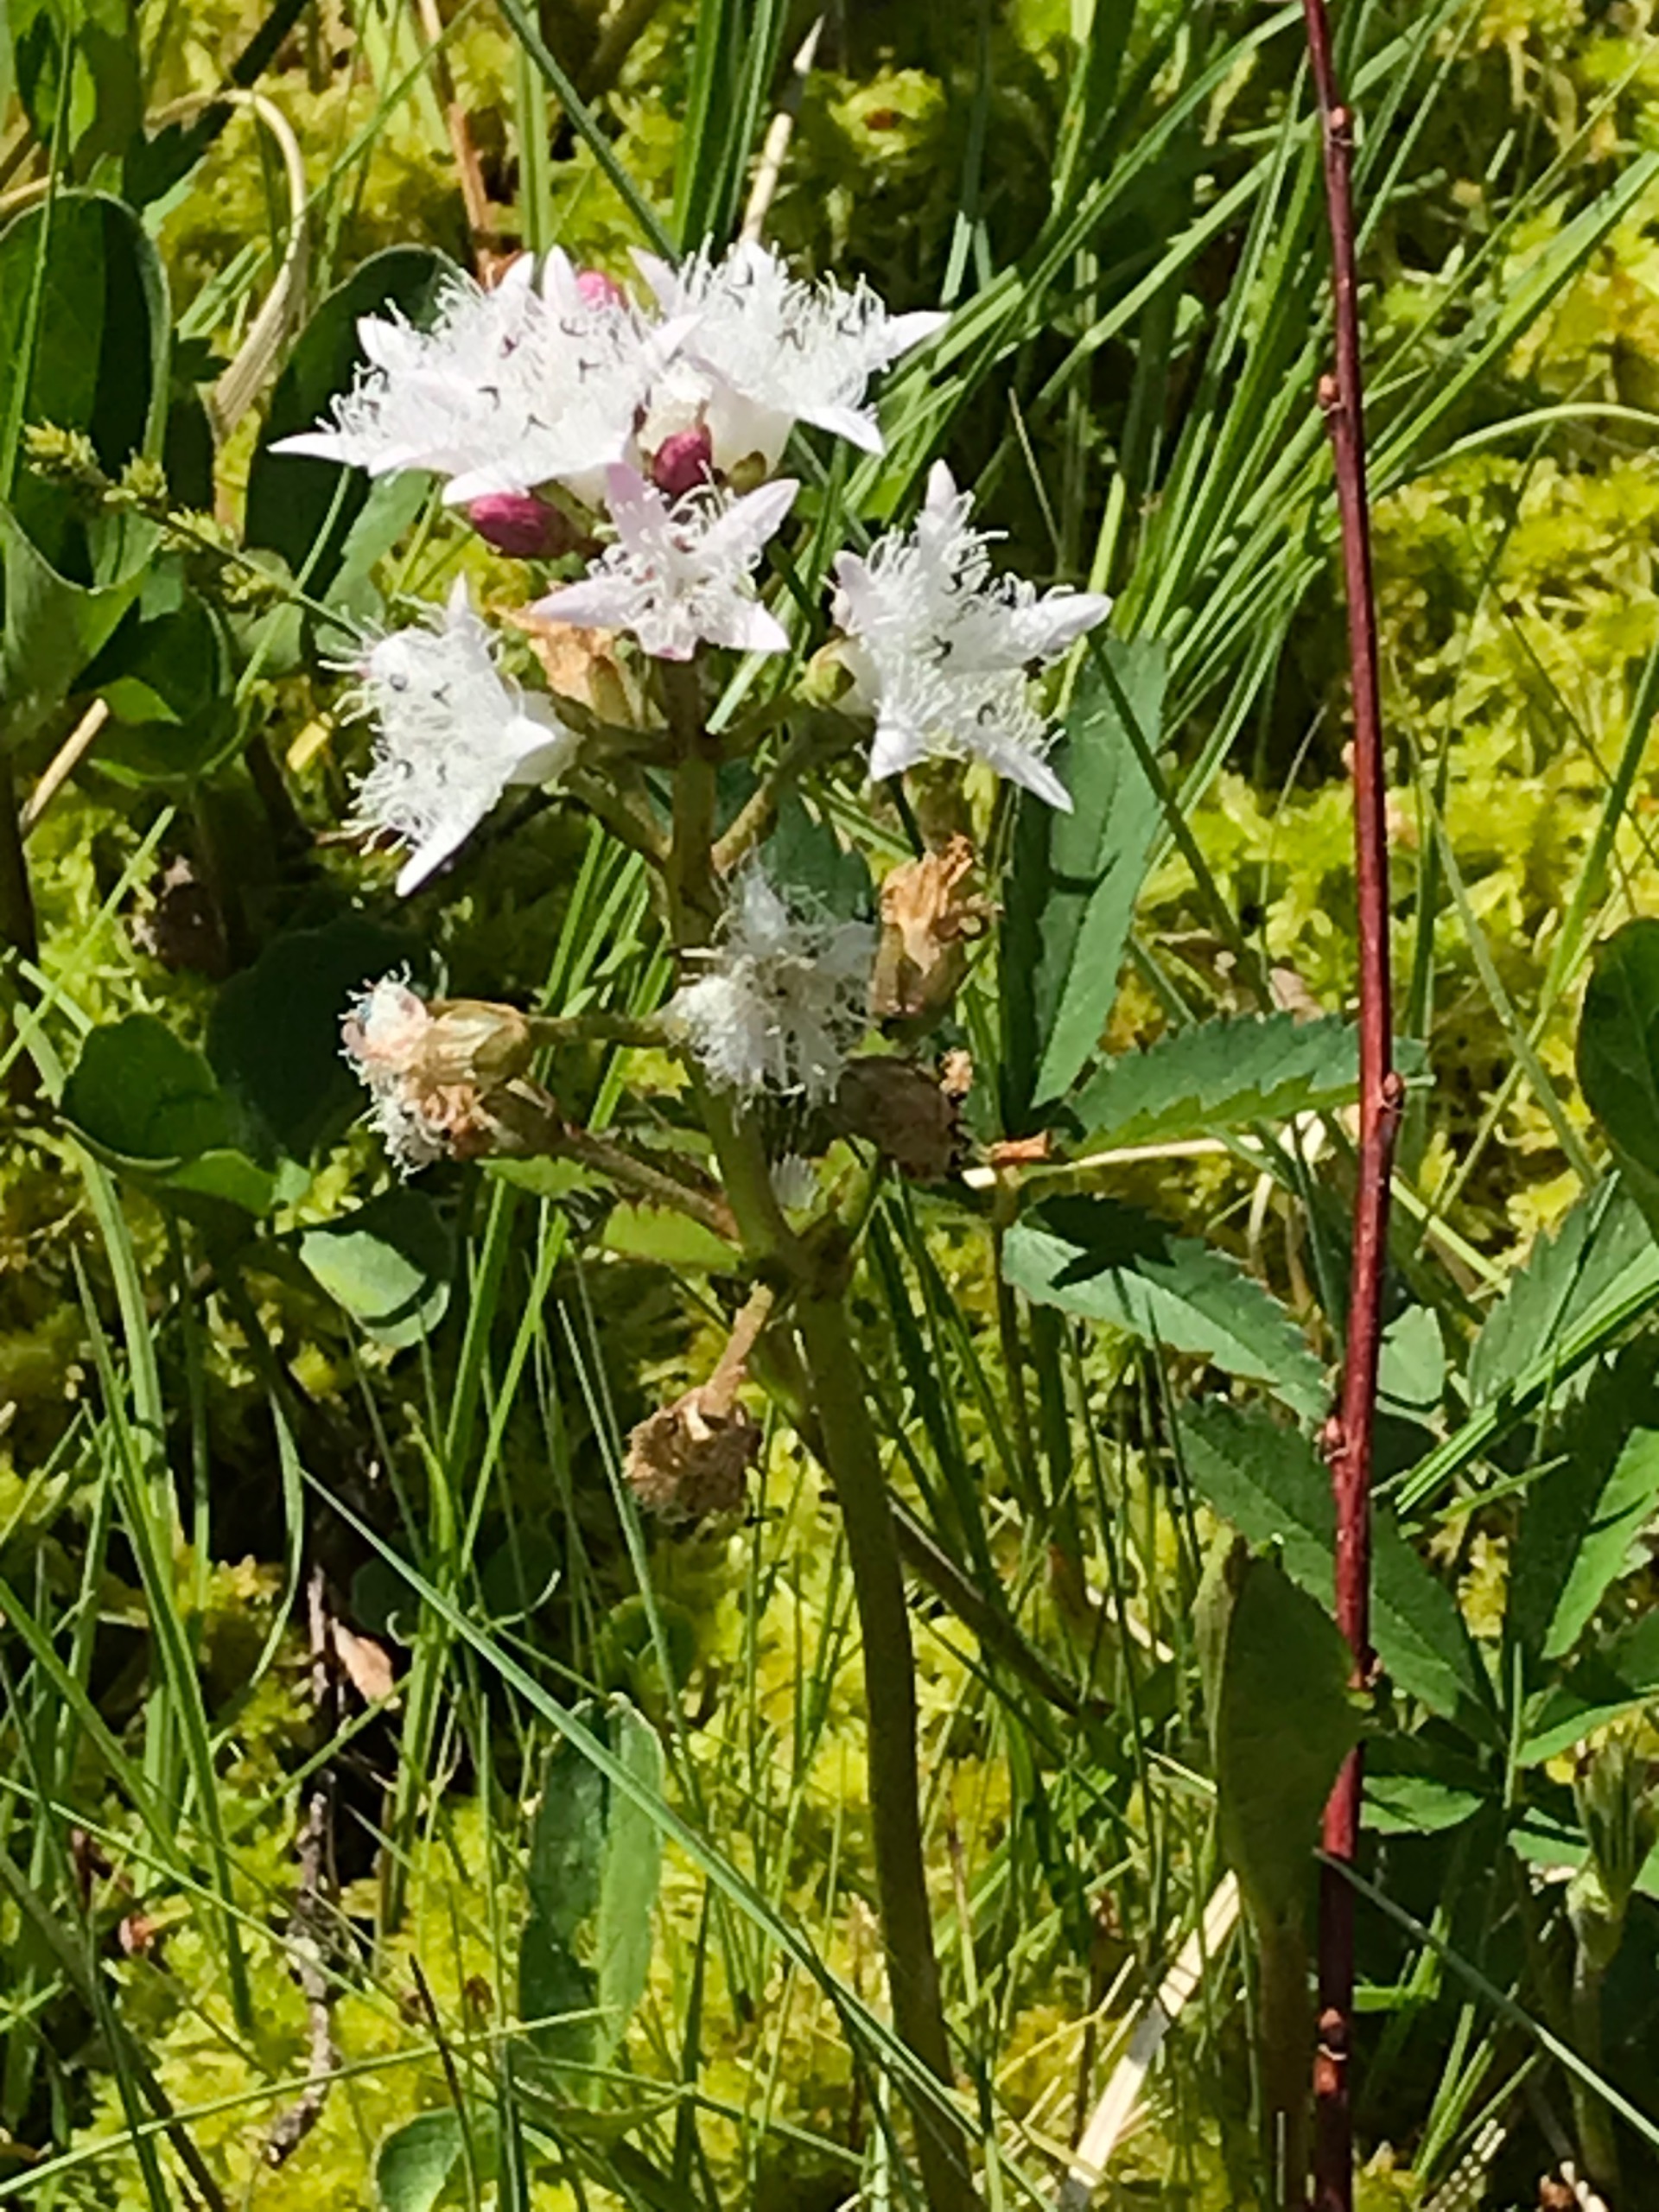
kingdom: Plantae
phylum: Tracheophyta
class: Magnoliopsida
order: Asterales
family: Menyanthaceae
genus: Menyanthes
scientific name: Menyanthes trifoliata
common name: Bukkeblad
